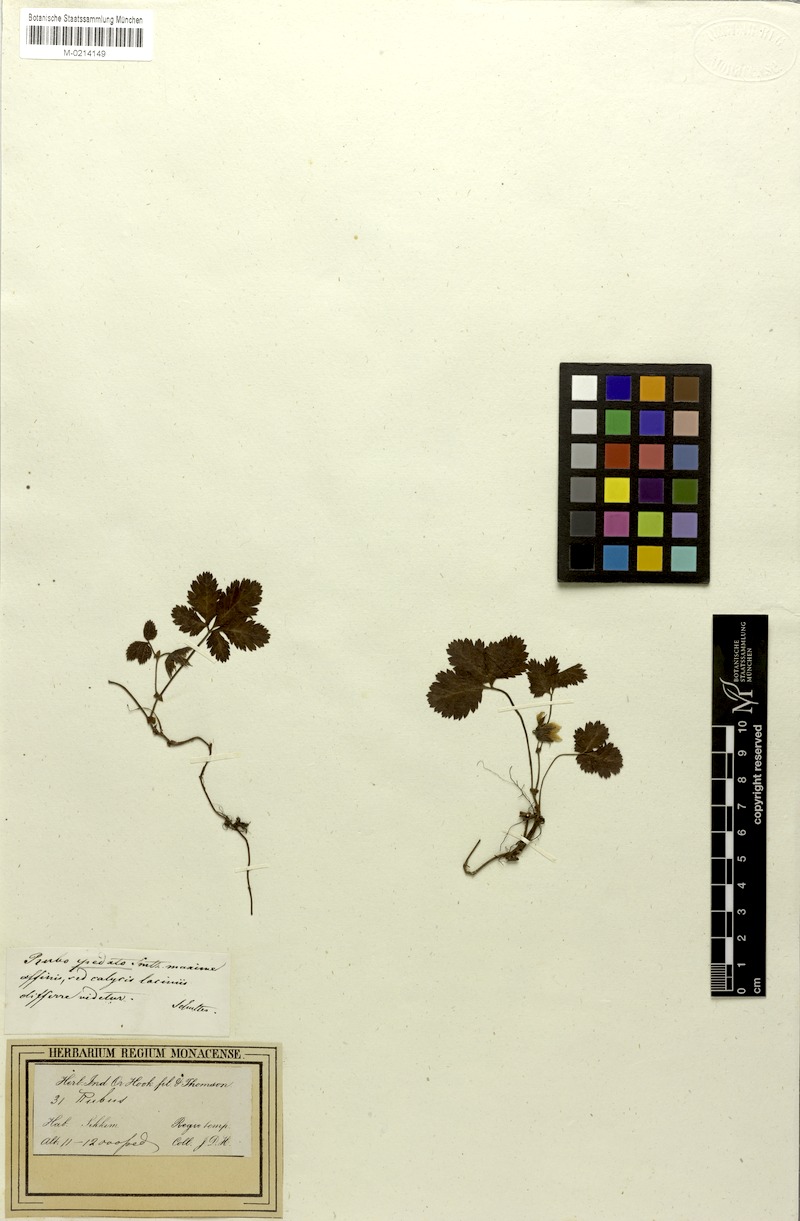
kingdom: Plantae
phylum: Tracheophyta
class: Magnoliopsida
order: Rosales
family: Rosaceae
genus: Rubus
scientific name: Rubus fragarioides
